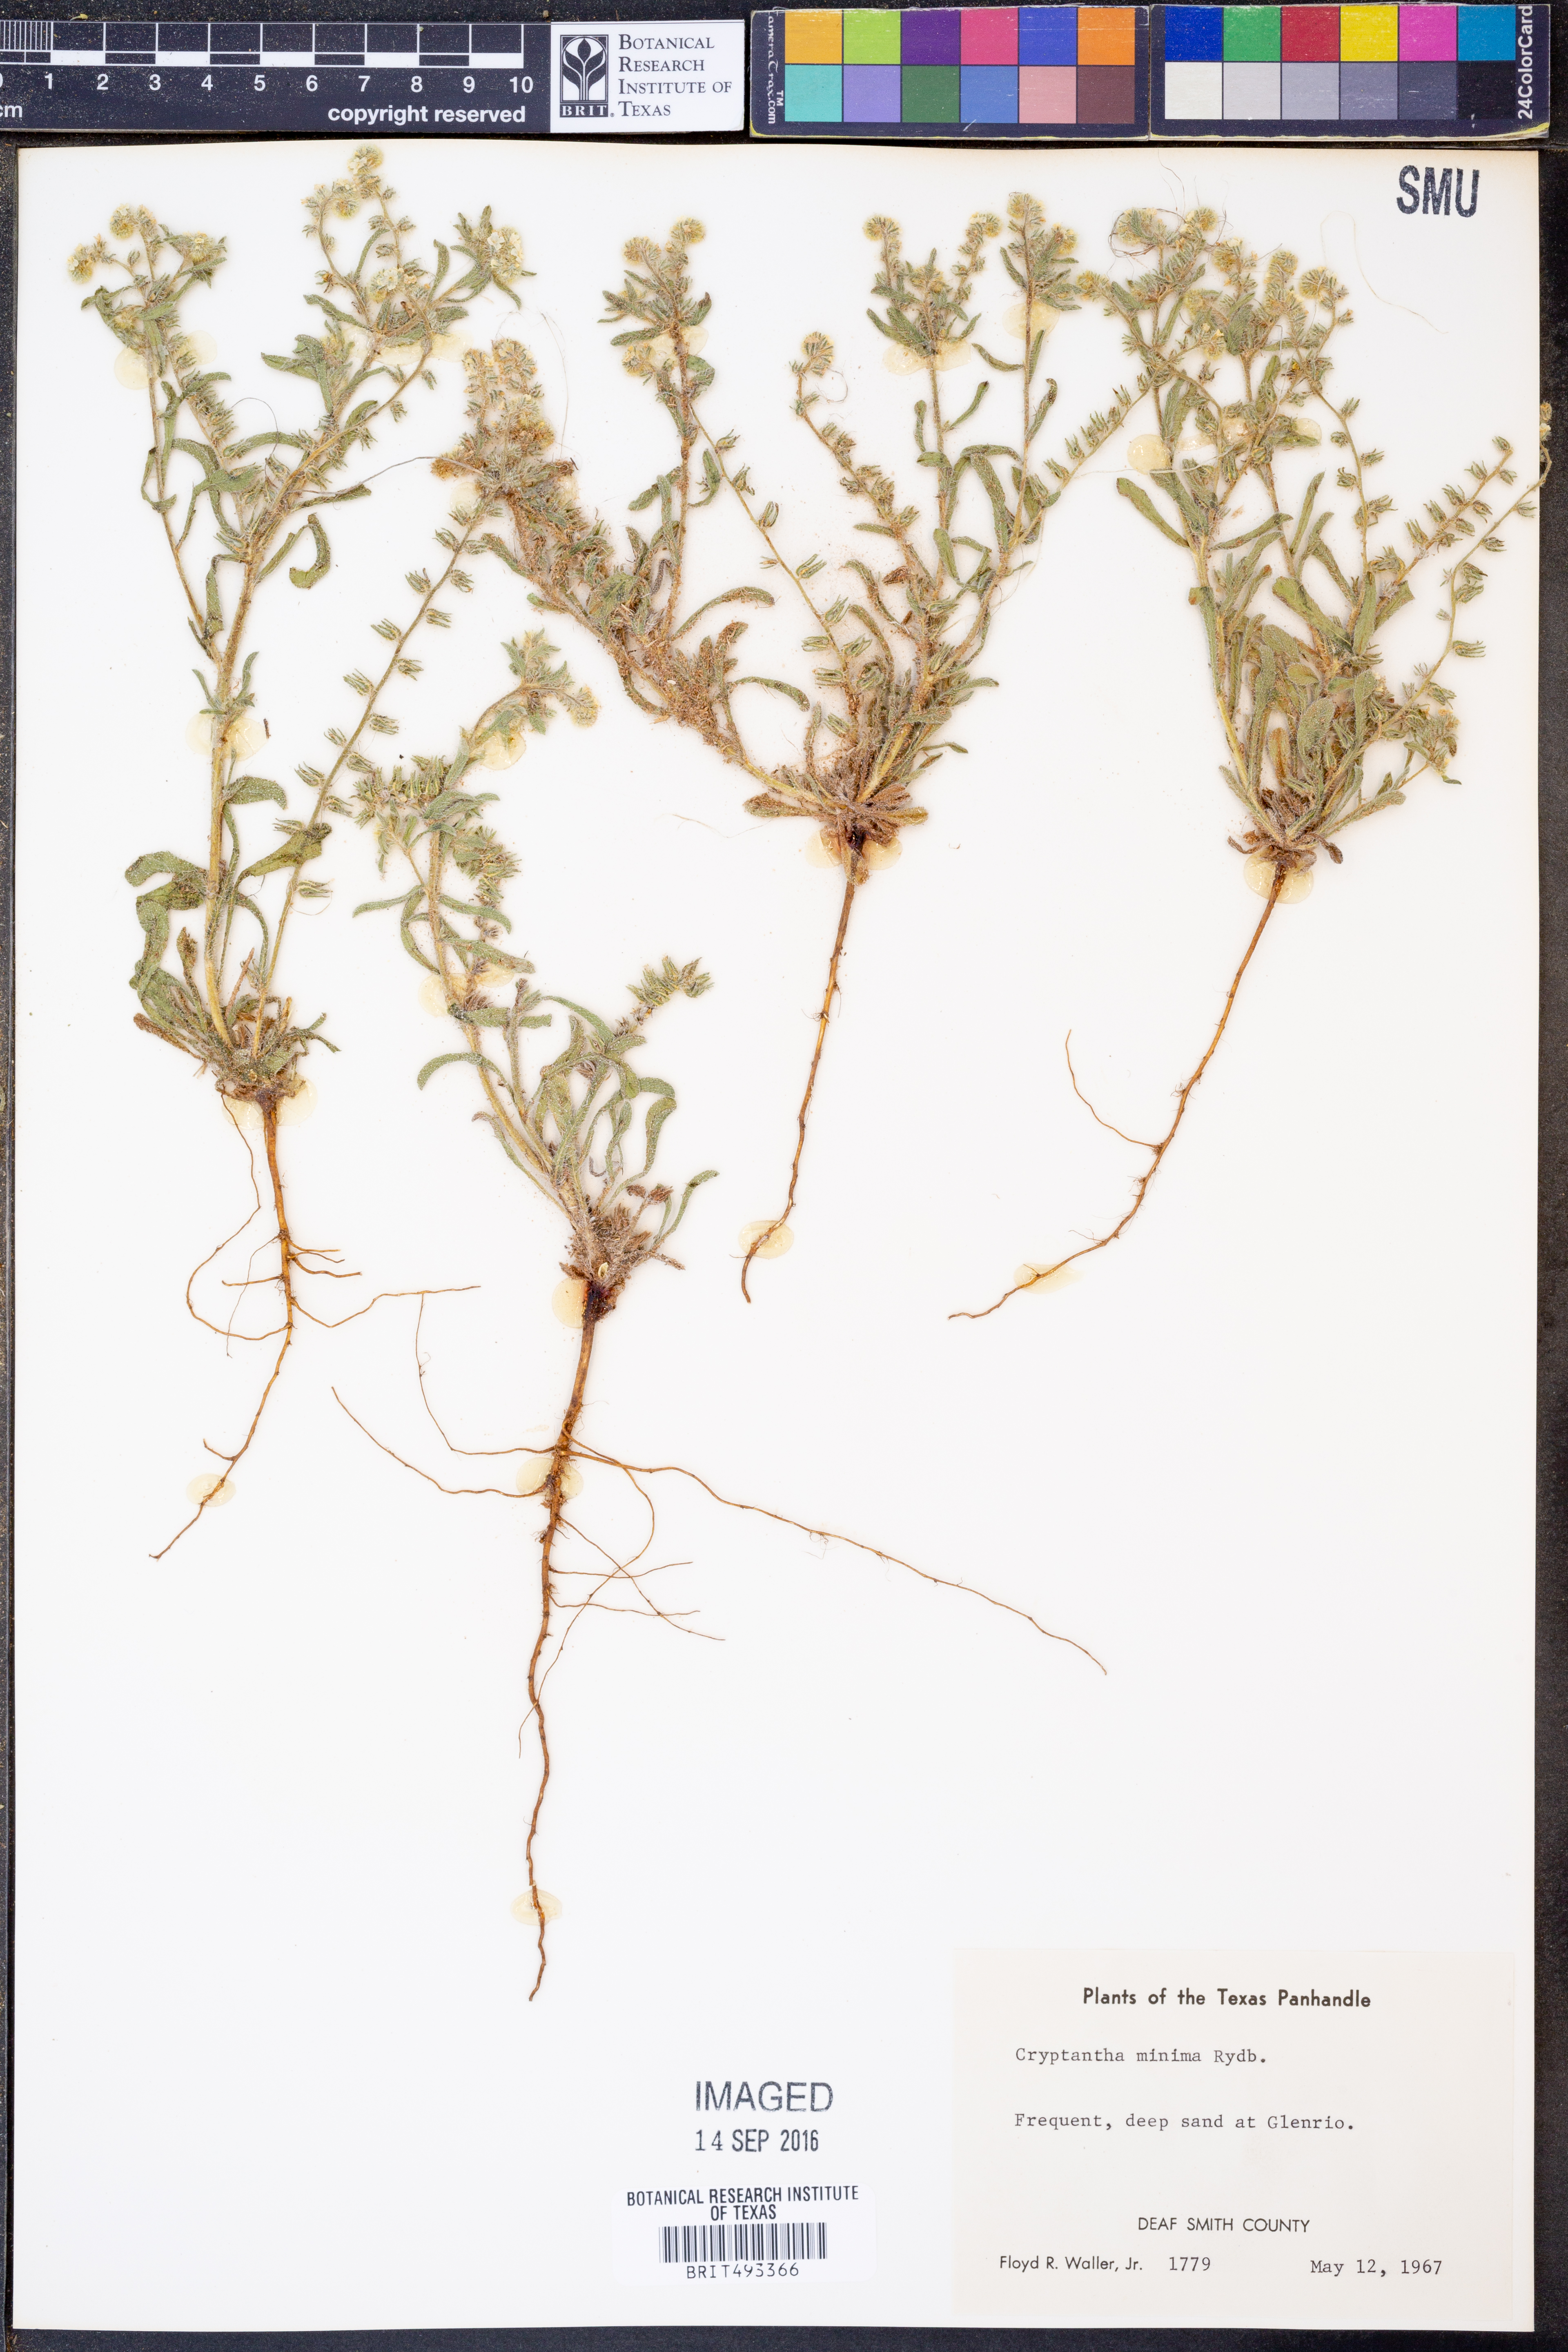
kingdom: Plantae
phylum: Tracheophyta
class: Magnoliopsida
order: Boraginales
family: Boraginaceae
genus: Cryptantha
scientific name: Cryptantha minima
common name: Little cat's-eye
